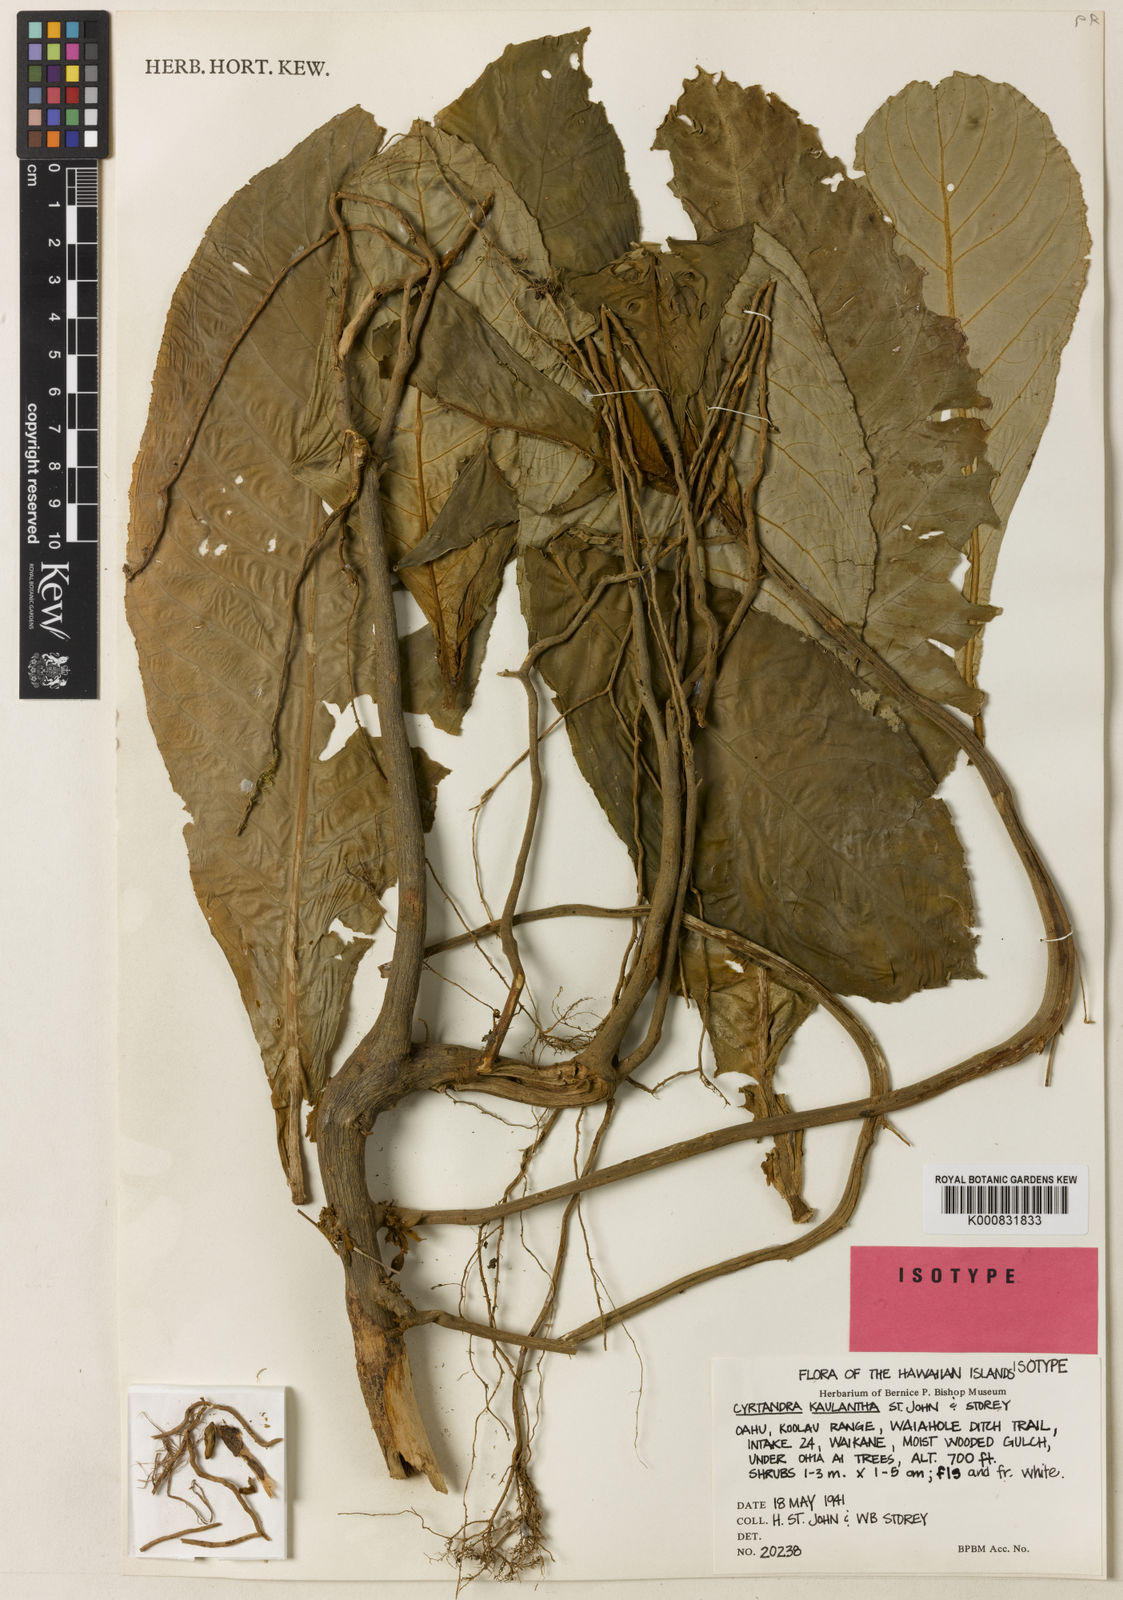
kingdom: Plantae
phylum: Tracheophyta
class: Magnoliopsida
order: Lamiales
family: Gesneriaceae
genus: Cyrtandra
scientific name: Cyrtandra kaulantha
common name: Waikane valley cyrtandra
